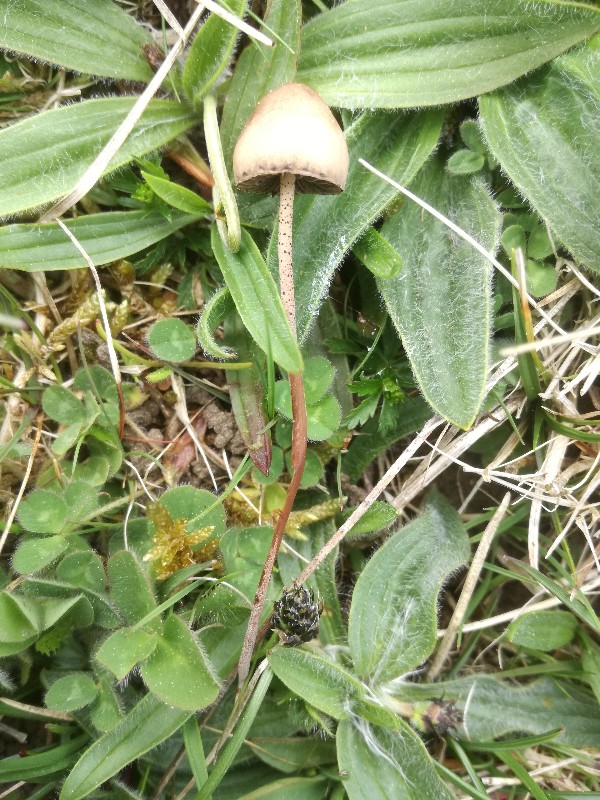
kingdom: Fungi
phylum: Basidiomycota
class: Agaricomycetes
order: Agaricales
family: Bolbitiaceae
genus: Panaeolus
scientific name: Panaeolus papilionaceus
